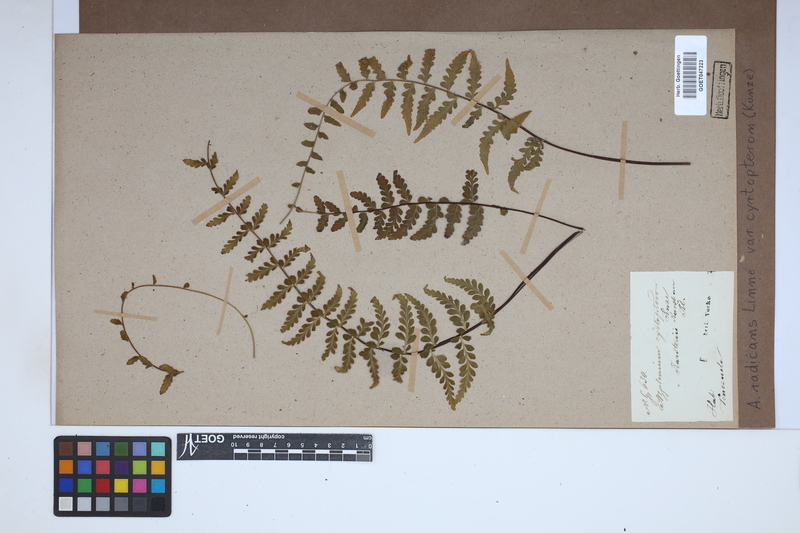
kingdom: Plantae
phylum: Tracheophyta
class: Polypodiopsida
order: Polypodiales
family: Aspleniaceae
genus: Asplenium
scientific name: Asplenium radicans
